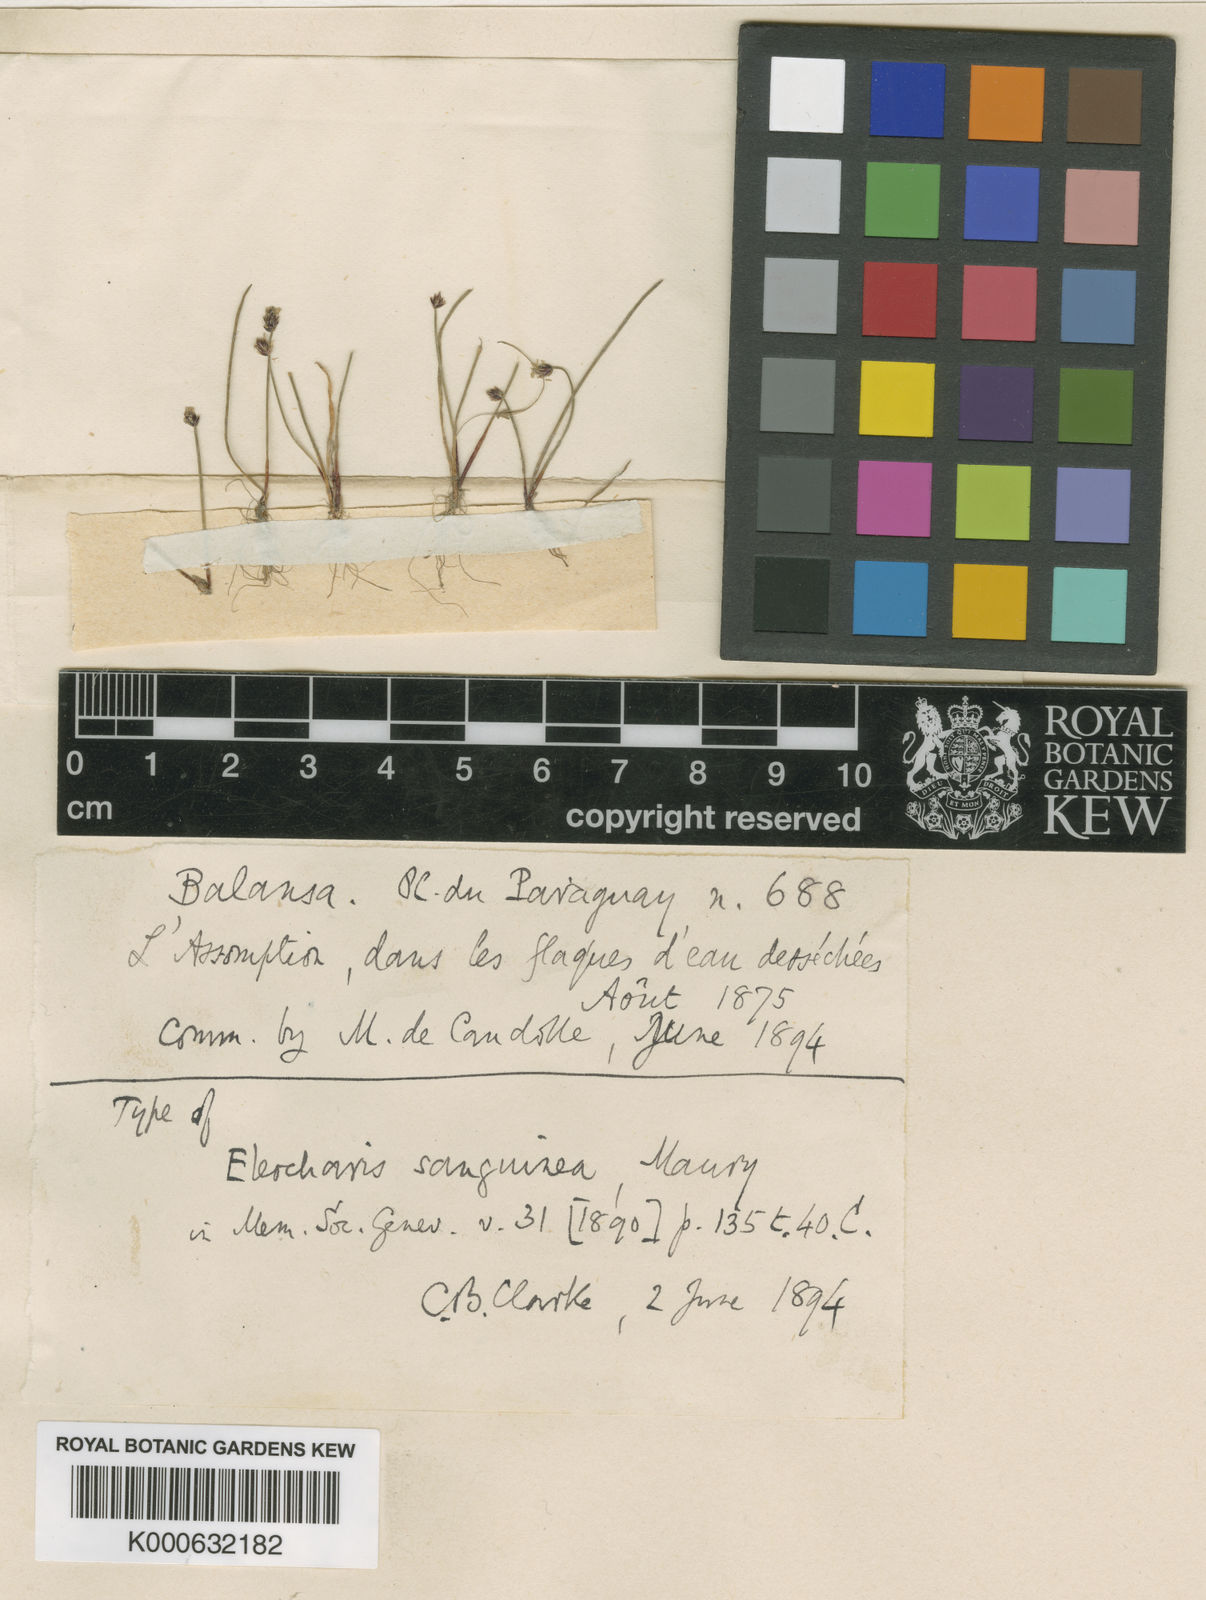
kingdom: Plantae
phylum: Tracheophyta
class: Liliopsida
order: Poales
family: Cyperaceae
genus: Eleocharis
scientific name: Eleocharis sanguinea
